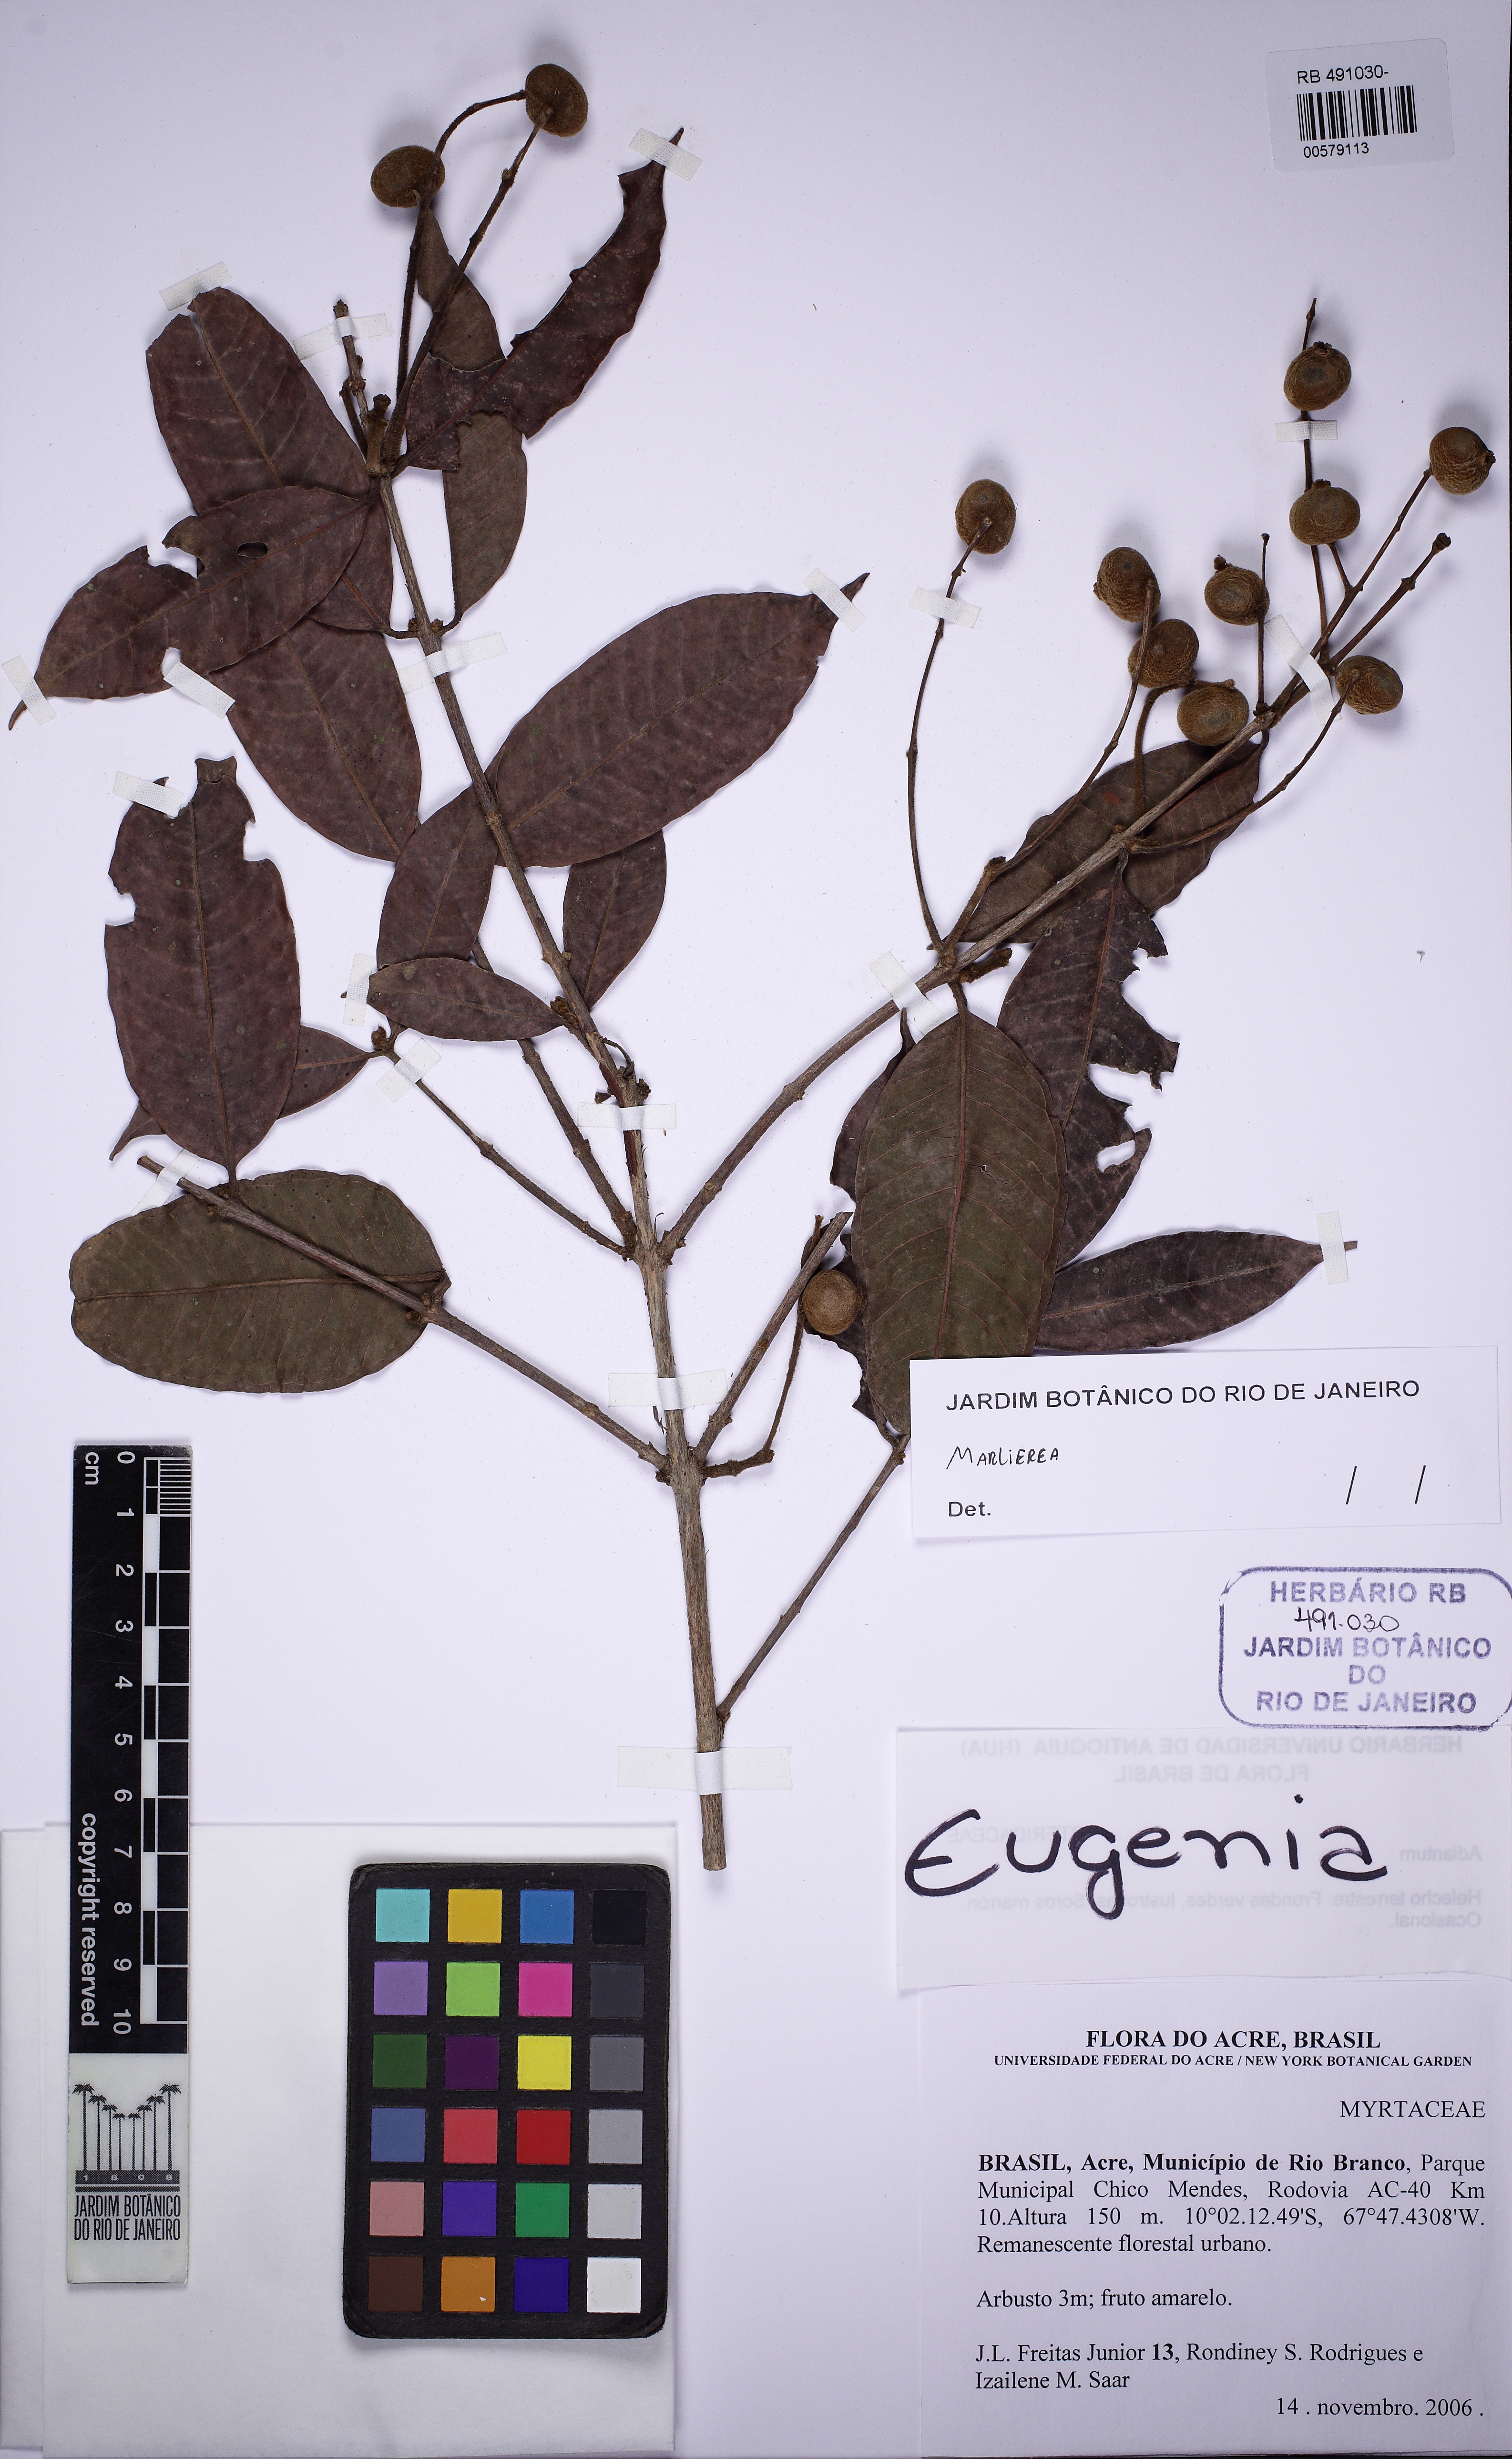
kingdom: Plantae
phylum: Tracheophyta
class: Magnoliopsida
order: Myrtales
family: Myrtaceae
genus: Marlierea
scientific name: Marlierea
